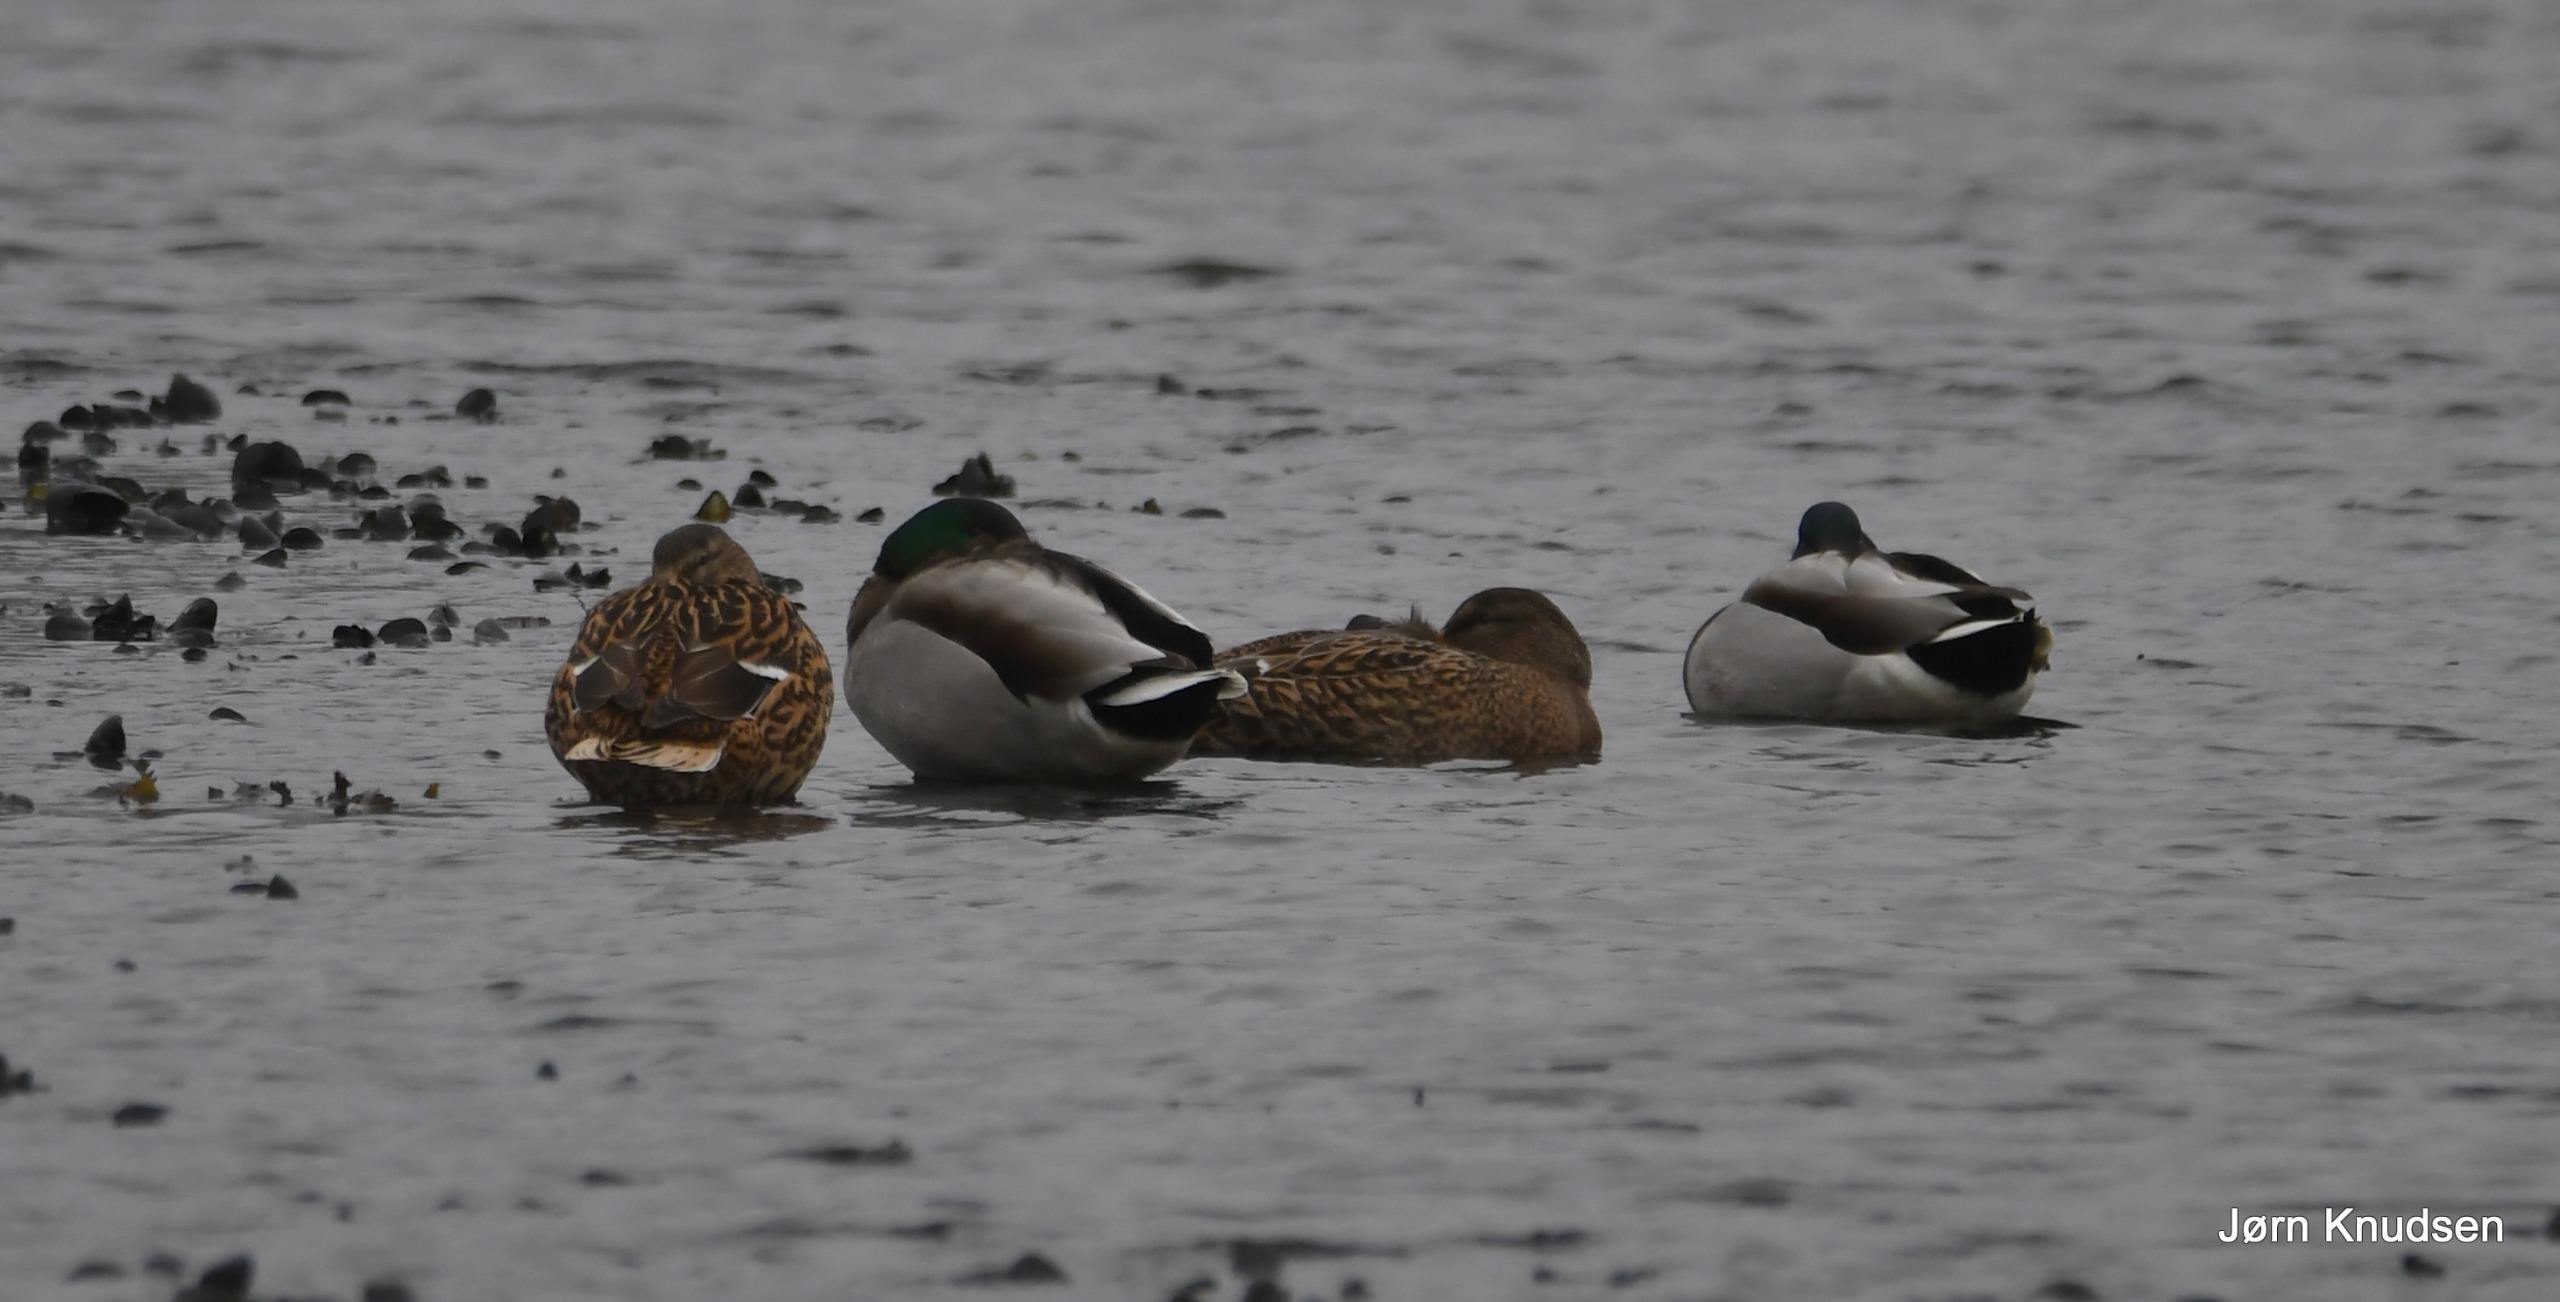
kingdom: Animalia
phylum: Chordata
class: Aves
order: Anseriformes
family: Anatidae
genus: Anas
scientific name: Anas platyrhynchos
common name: Gråand
